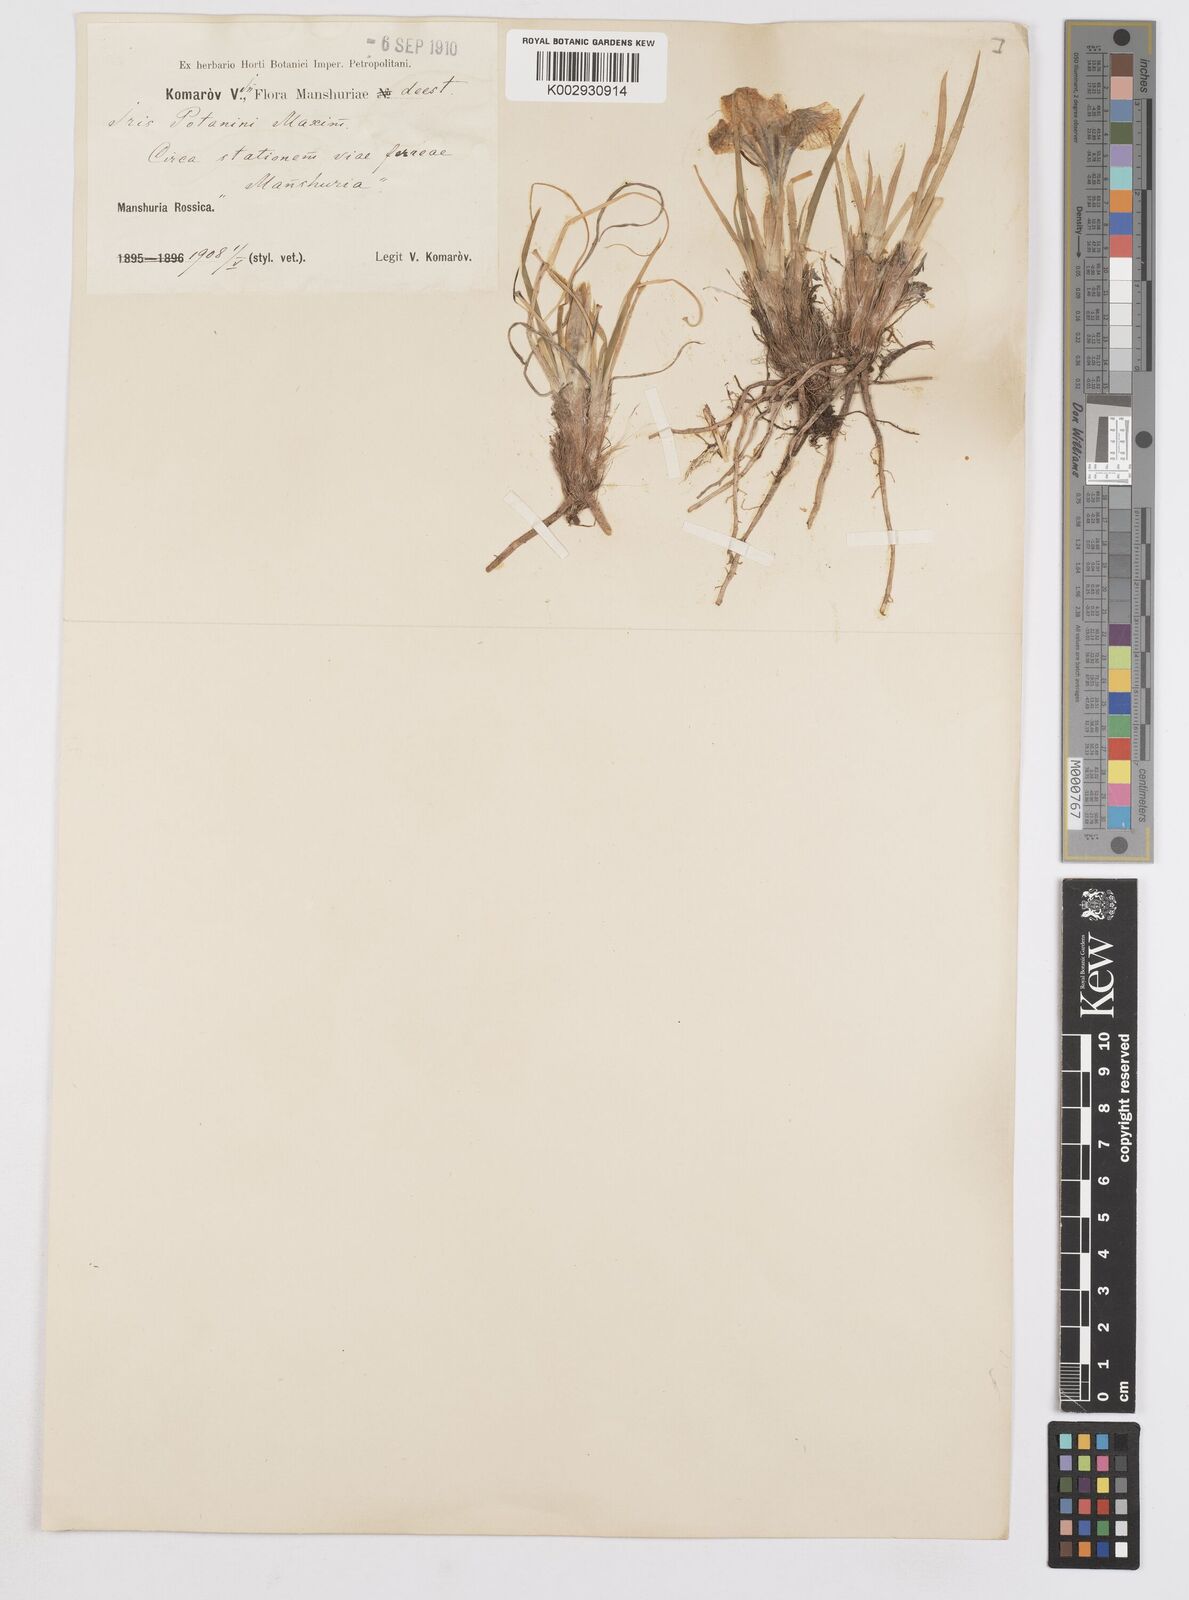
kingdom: Plantae
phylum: Tracheophyta
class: Liliopsida
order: Asparagales
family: Iridaceae
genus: Iris
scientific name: Iris potaninii
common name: Curl-sheath iris
